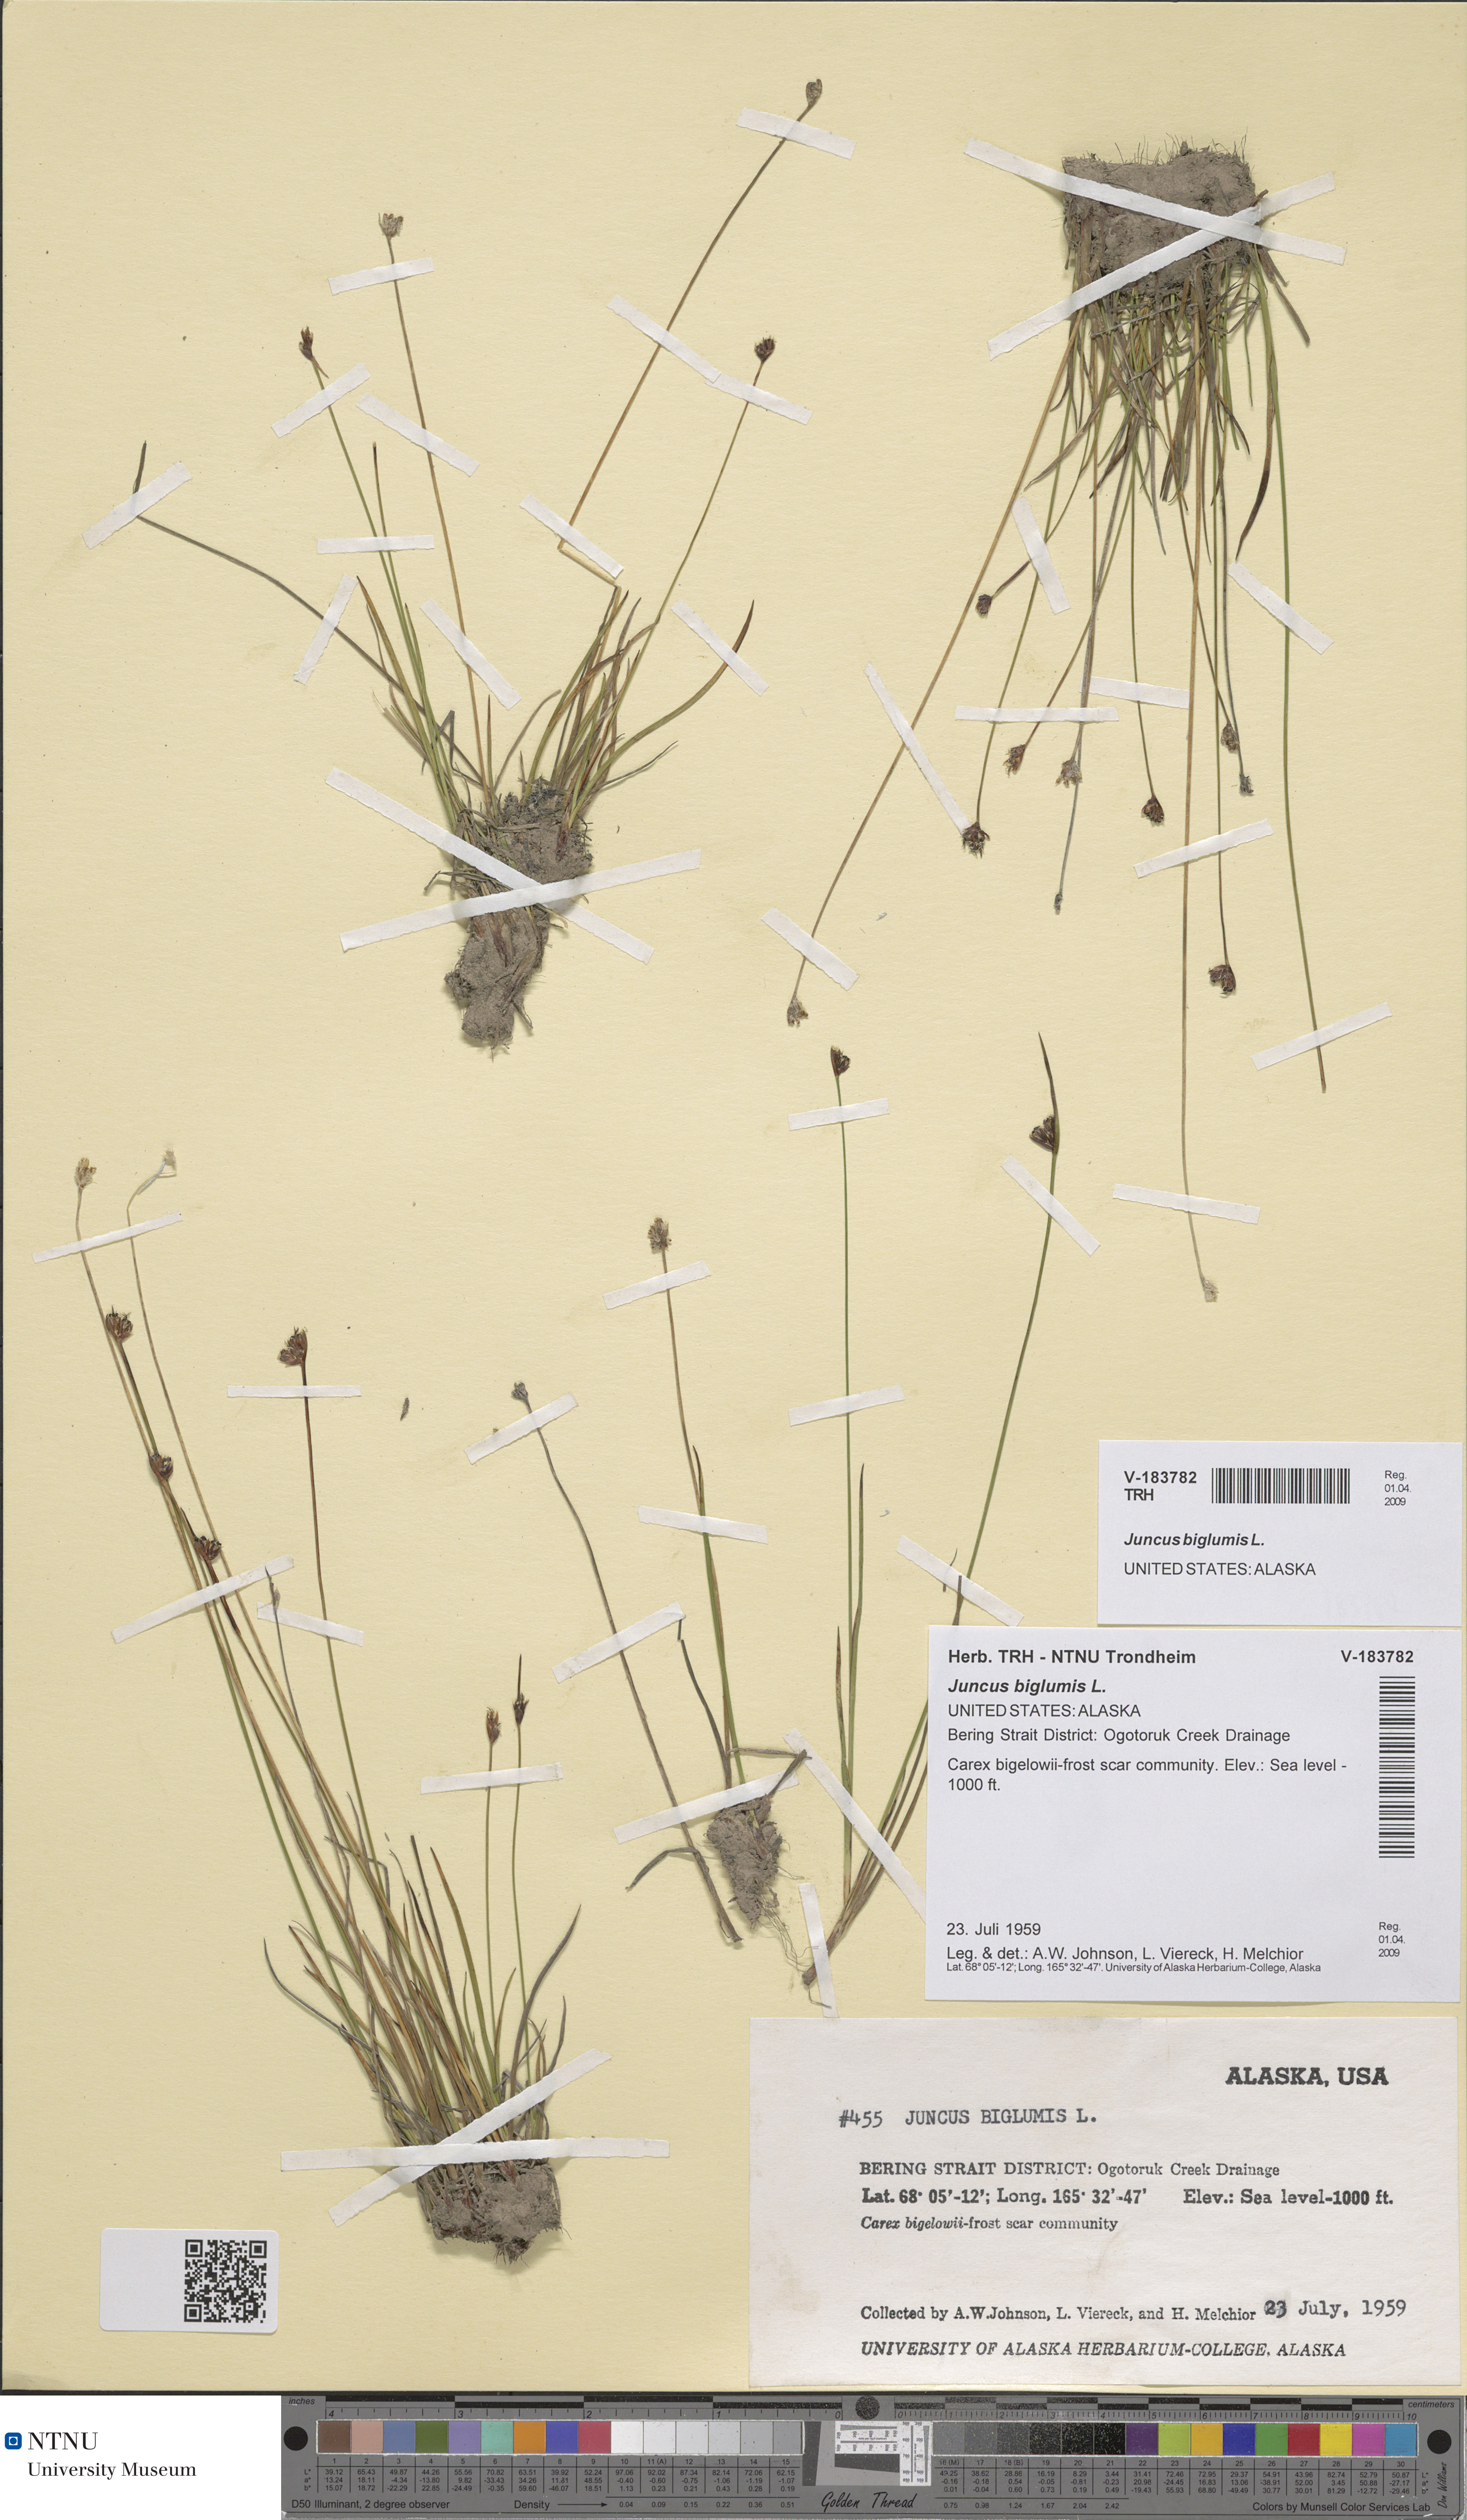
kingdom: Plantae
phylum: Tracheophyta
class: Liliopsida
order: Poales
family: Juncaceae
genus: Juncus
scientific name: Juncus biglumis
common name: Two-flowered rush
